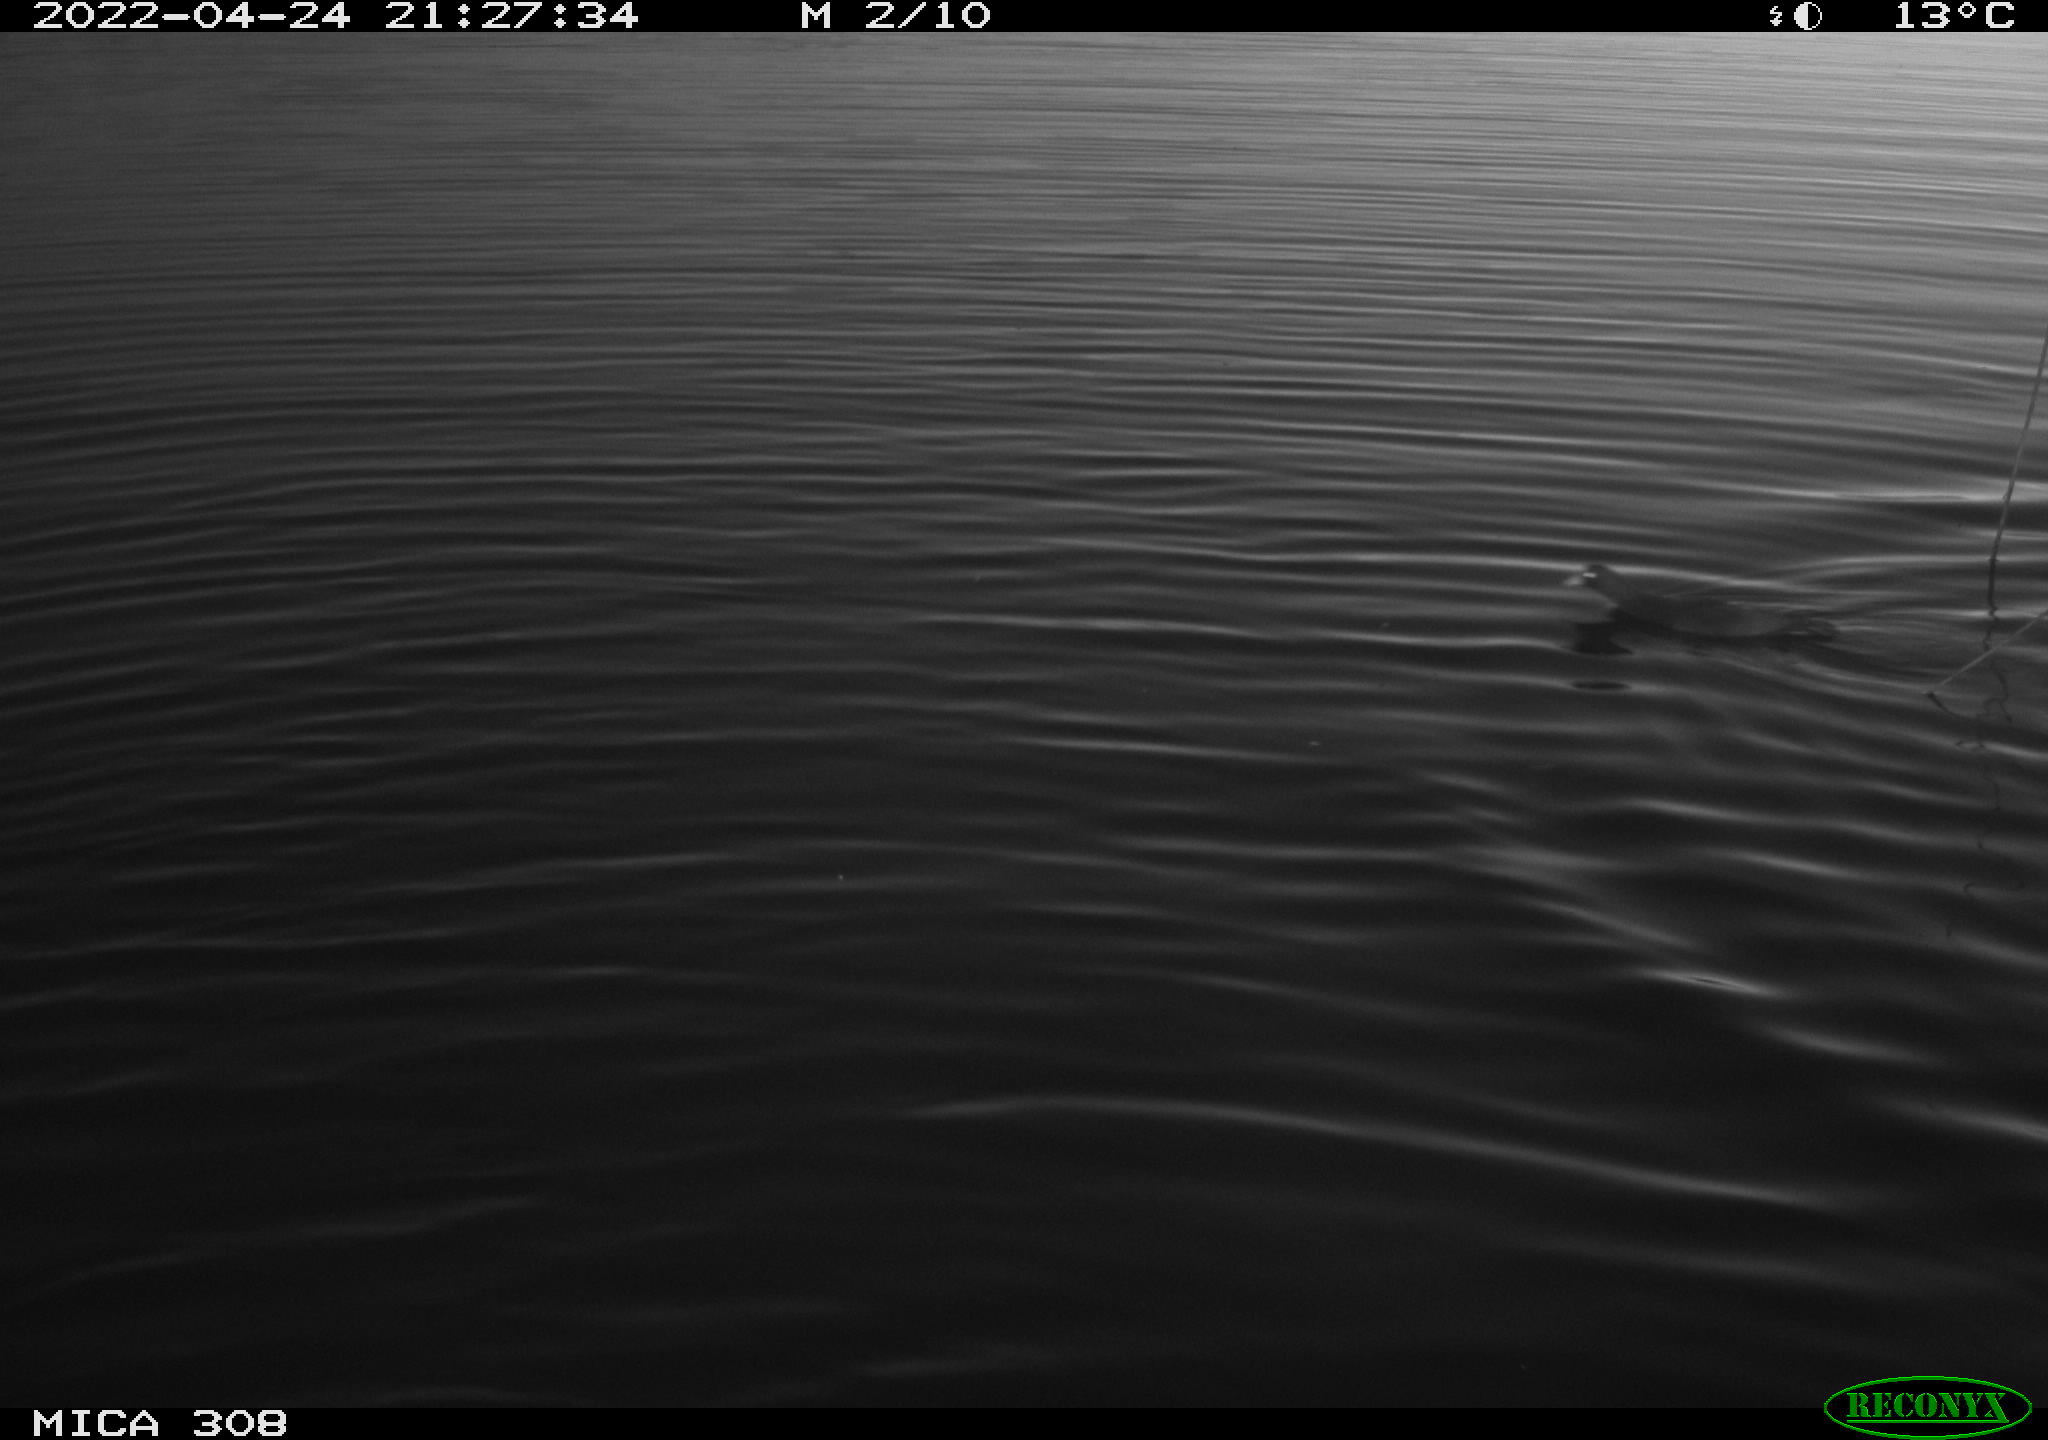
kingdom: Animalia
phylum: Chordata
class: Aves
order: Gruiformes
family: Rallidae
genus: Gallinula
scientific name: Gallinula chloropus
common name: Common moorhen
